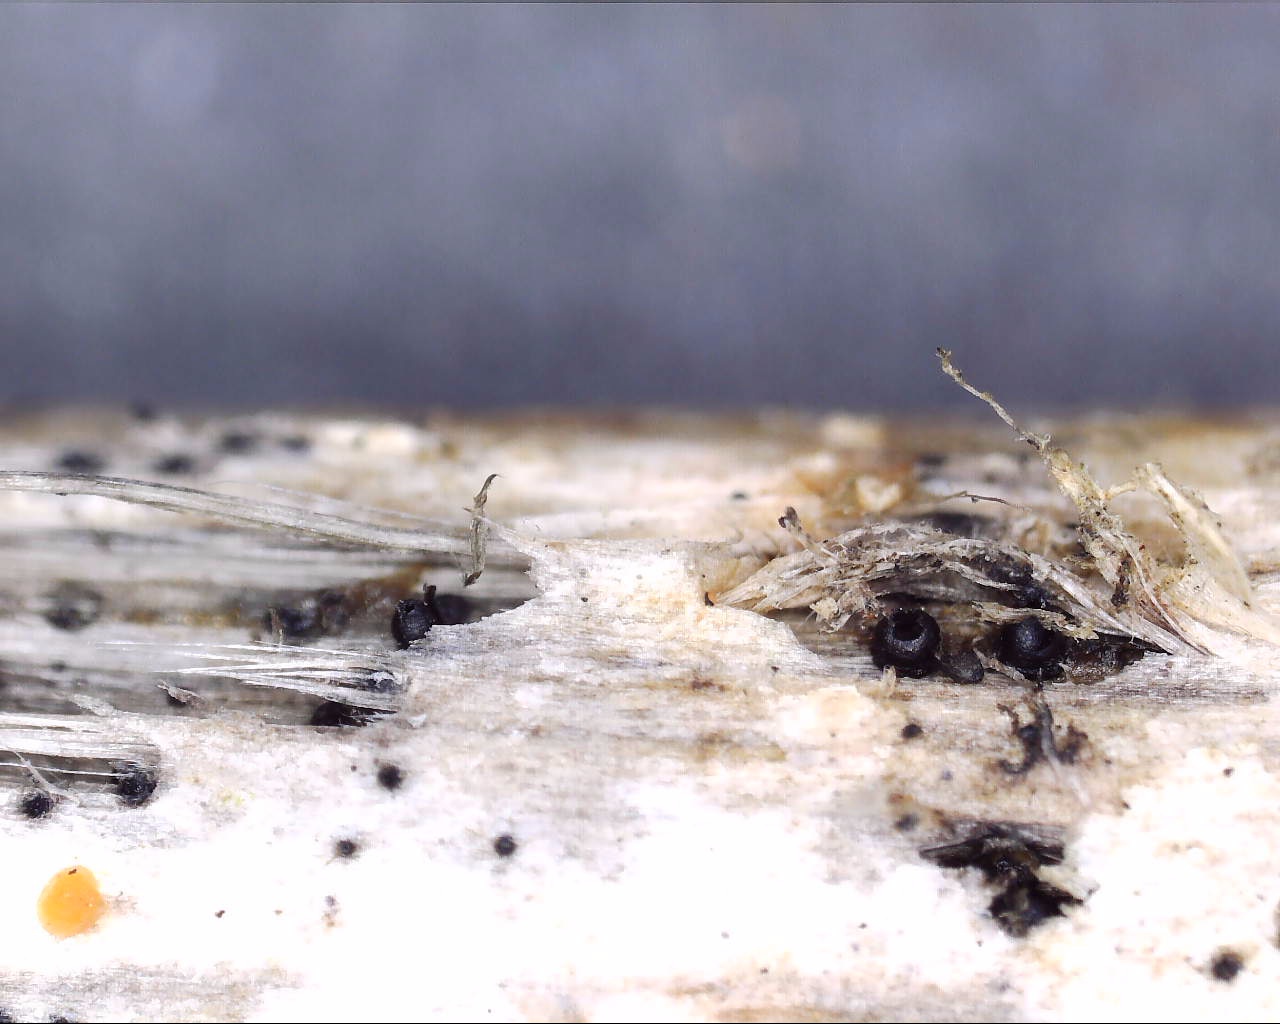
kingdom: Fungi
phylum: Ascomycota
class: Dothideomycetes
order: Pleosporales
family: Leptosphaeriaceae
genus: Leptosphaeria
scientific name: Leptosphaeria acuta
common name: spids kulkegle
